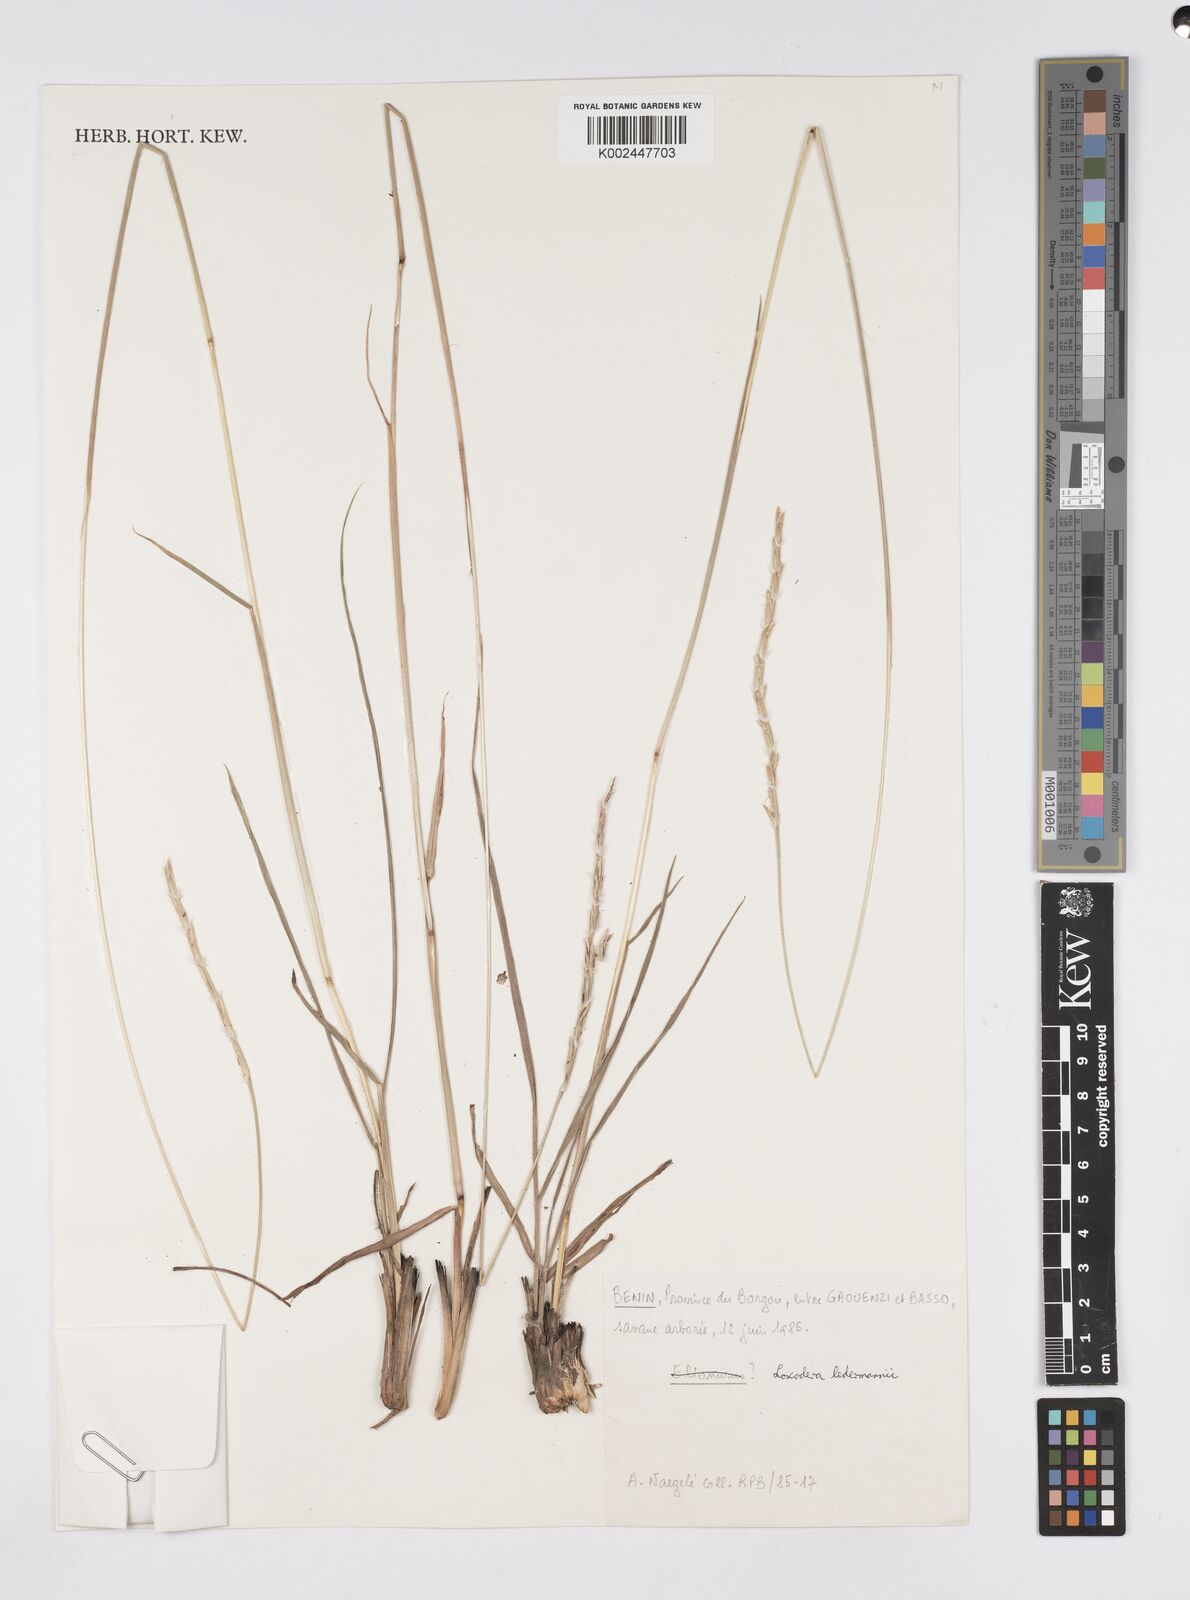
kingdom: Plantae
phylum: Tracheophyta
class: Liliopsida
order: Poales
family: Poaceae
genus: Loxodera
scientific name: Loxodera ledermannii
